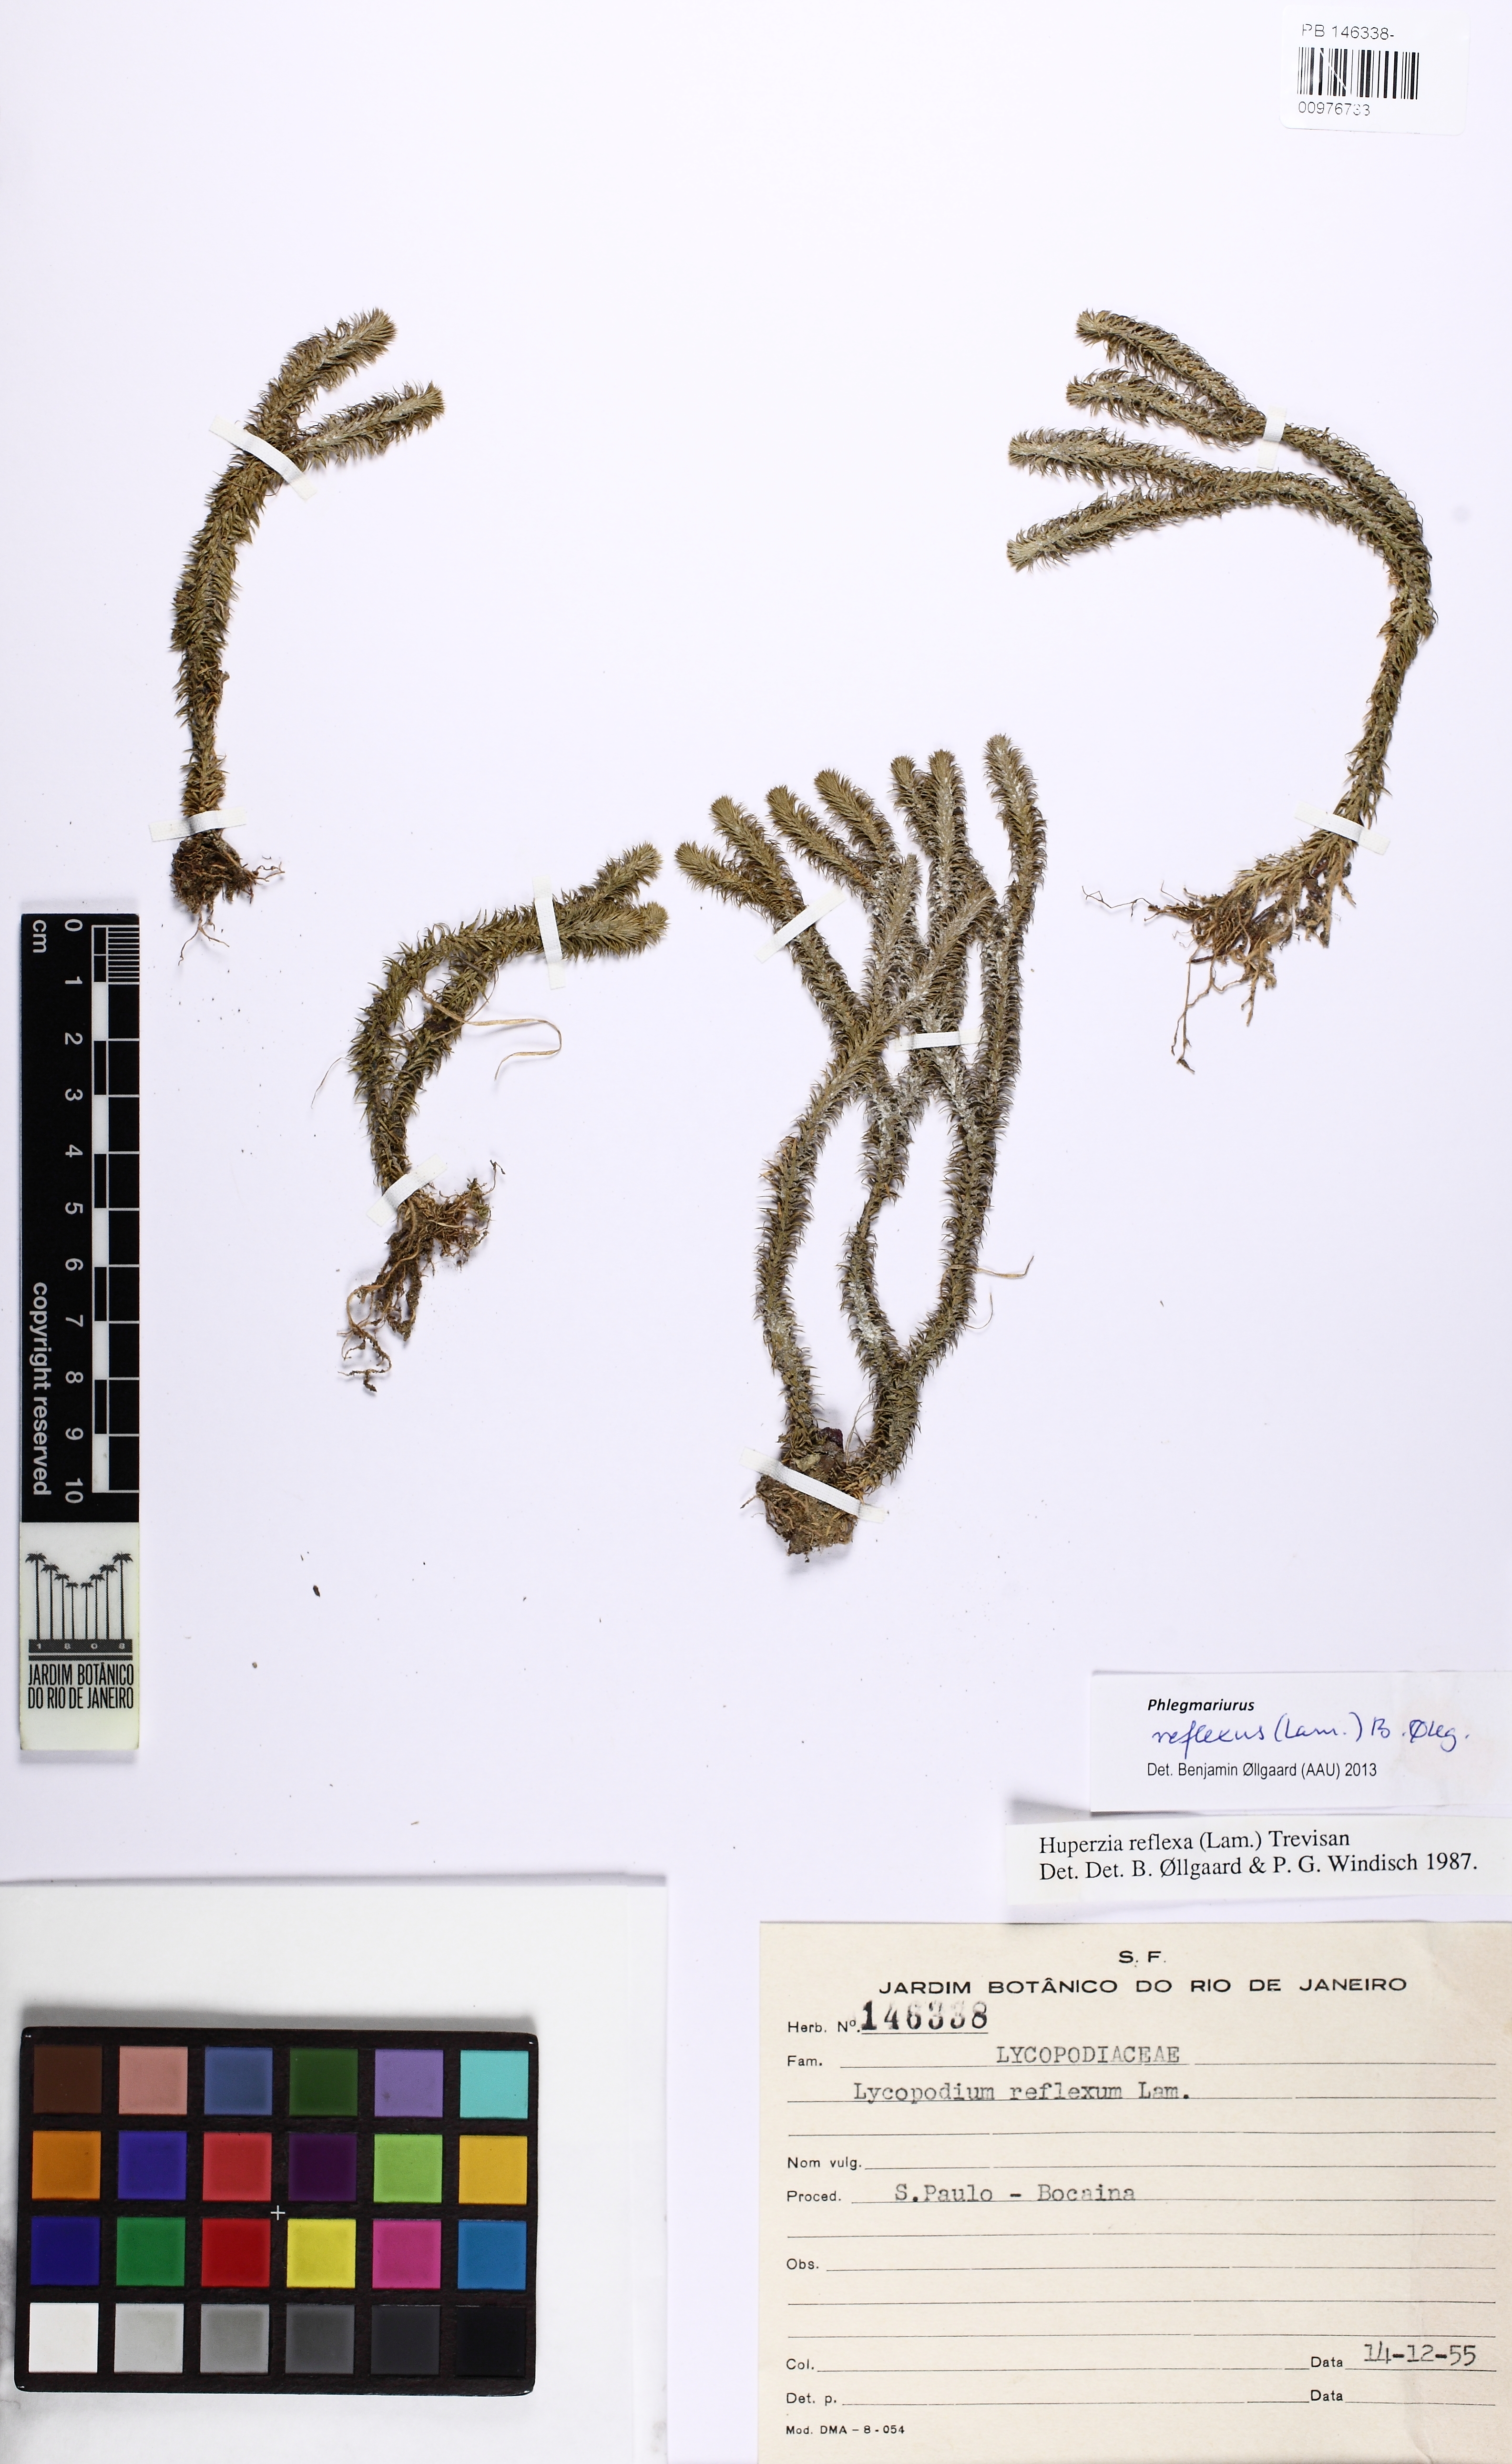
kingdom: Plantae
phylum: Tracheophyta
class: Lycopodiopsida
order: Lycopodiales
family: Lycopodiaceae
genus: Phlegmariurus
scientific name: Phlegmariurus reflexus
